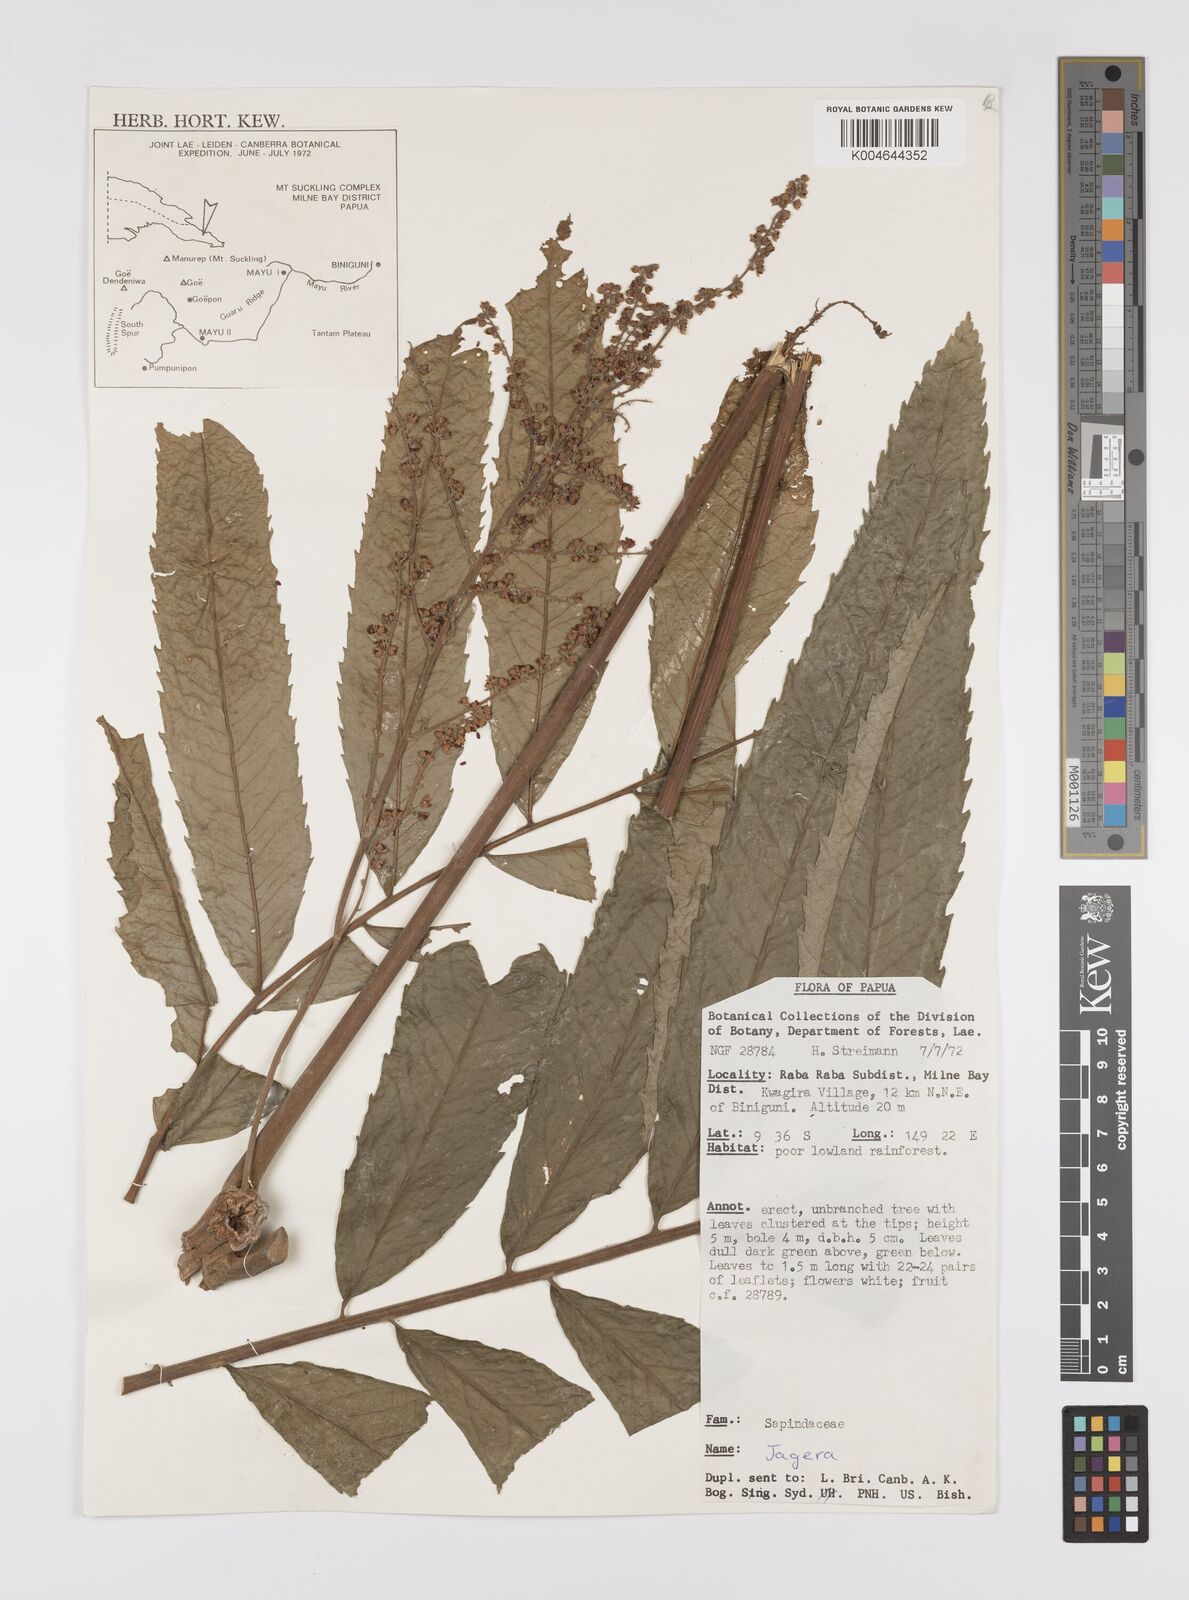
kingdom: Plantae
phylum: Tracheophyta
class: Magnoliopsida
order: Sapindales
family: Sapindaceae
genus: Jagera
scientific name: Jagera
